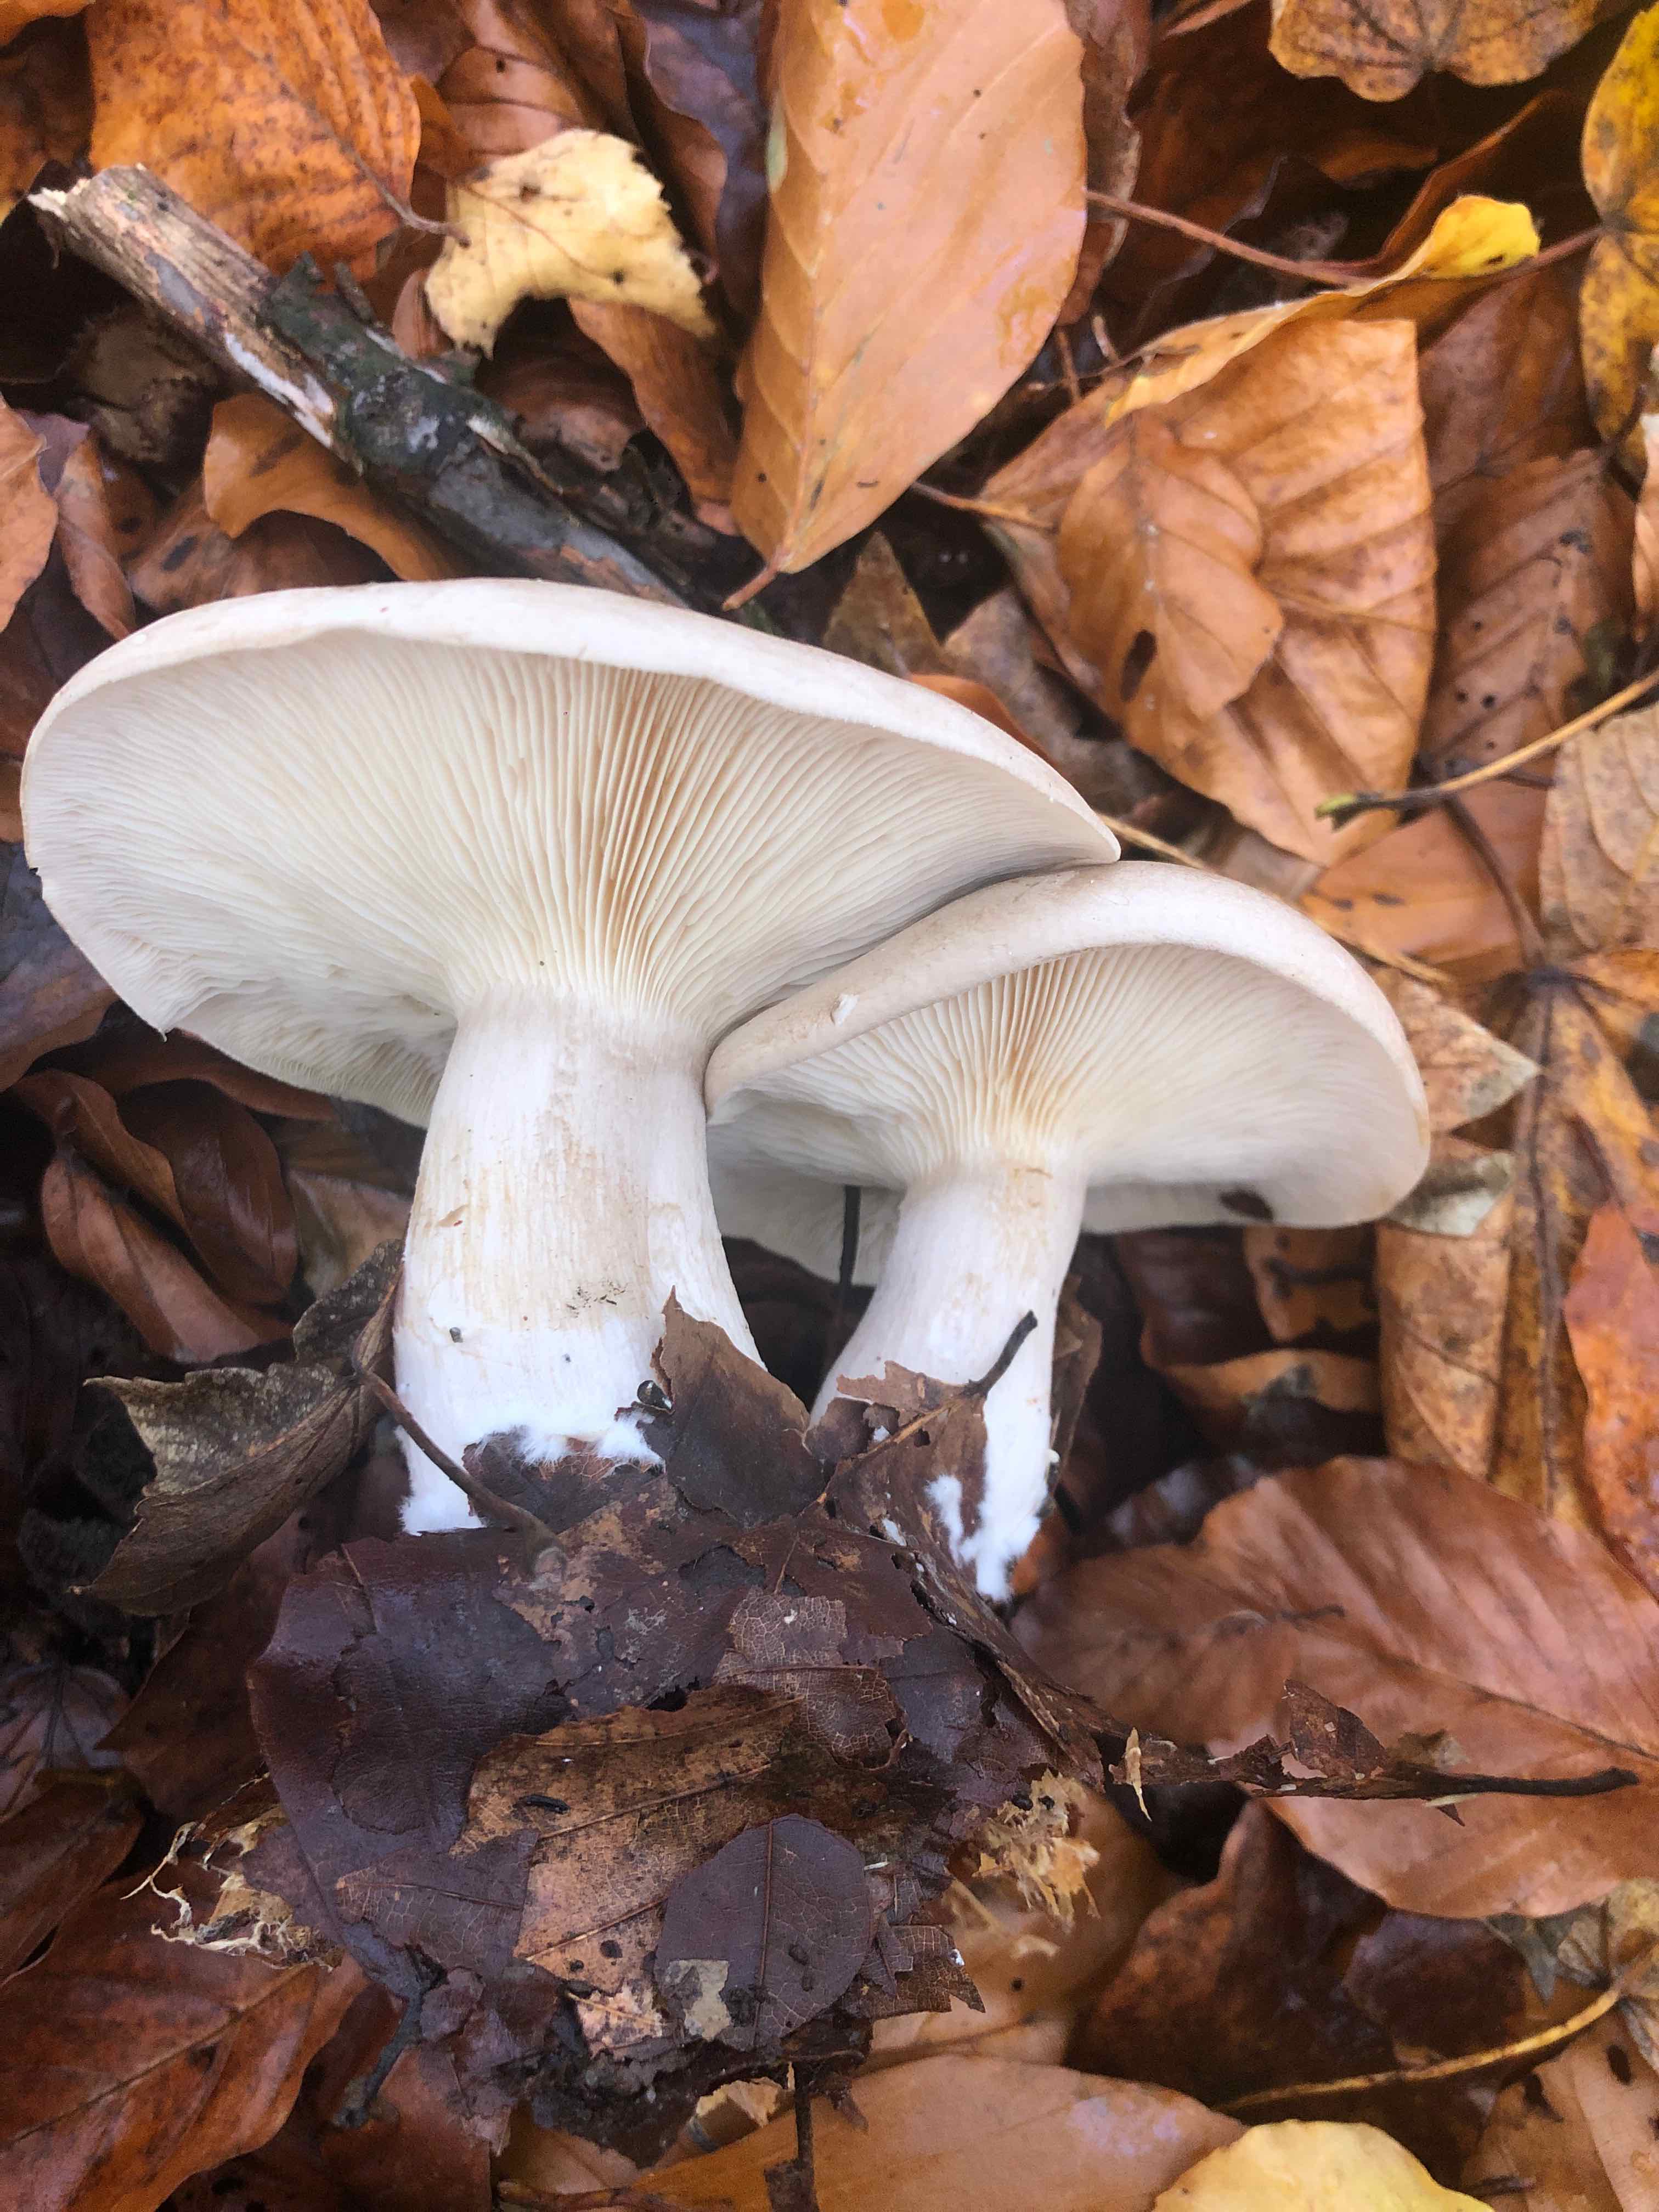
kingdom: Fungi
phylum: Basidiomycota
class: Agaricomycetes
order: Agaricales
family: Tricholomataceae
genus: Clitocybe
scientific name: Clitocybe nebularis
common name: tåge-tragthat
